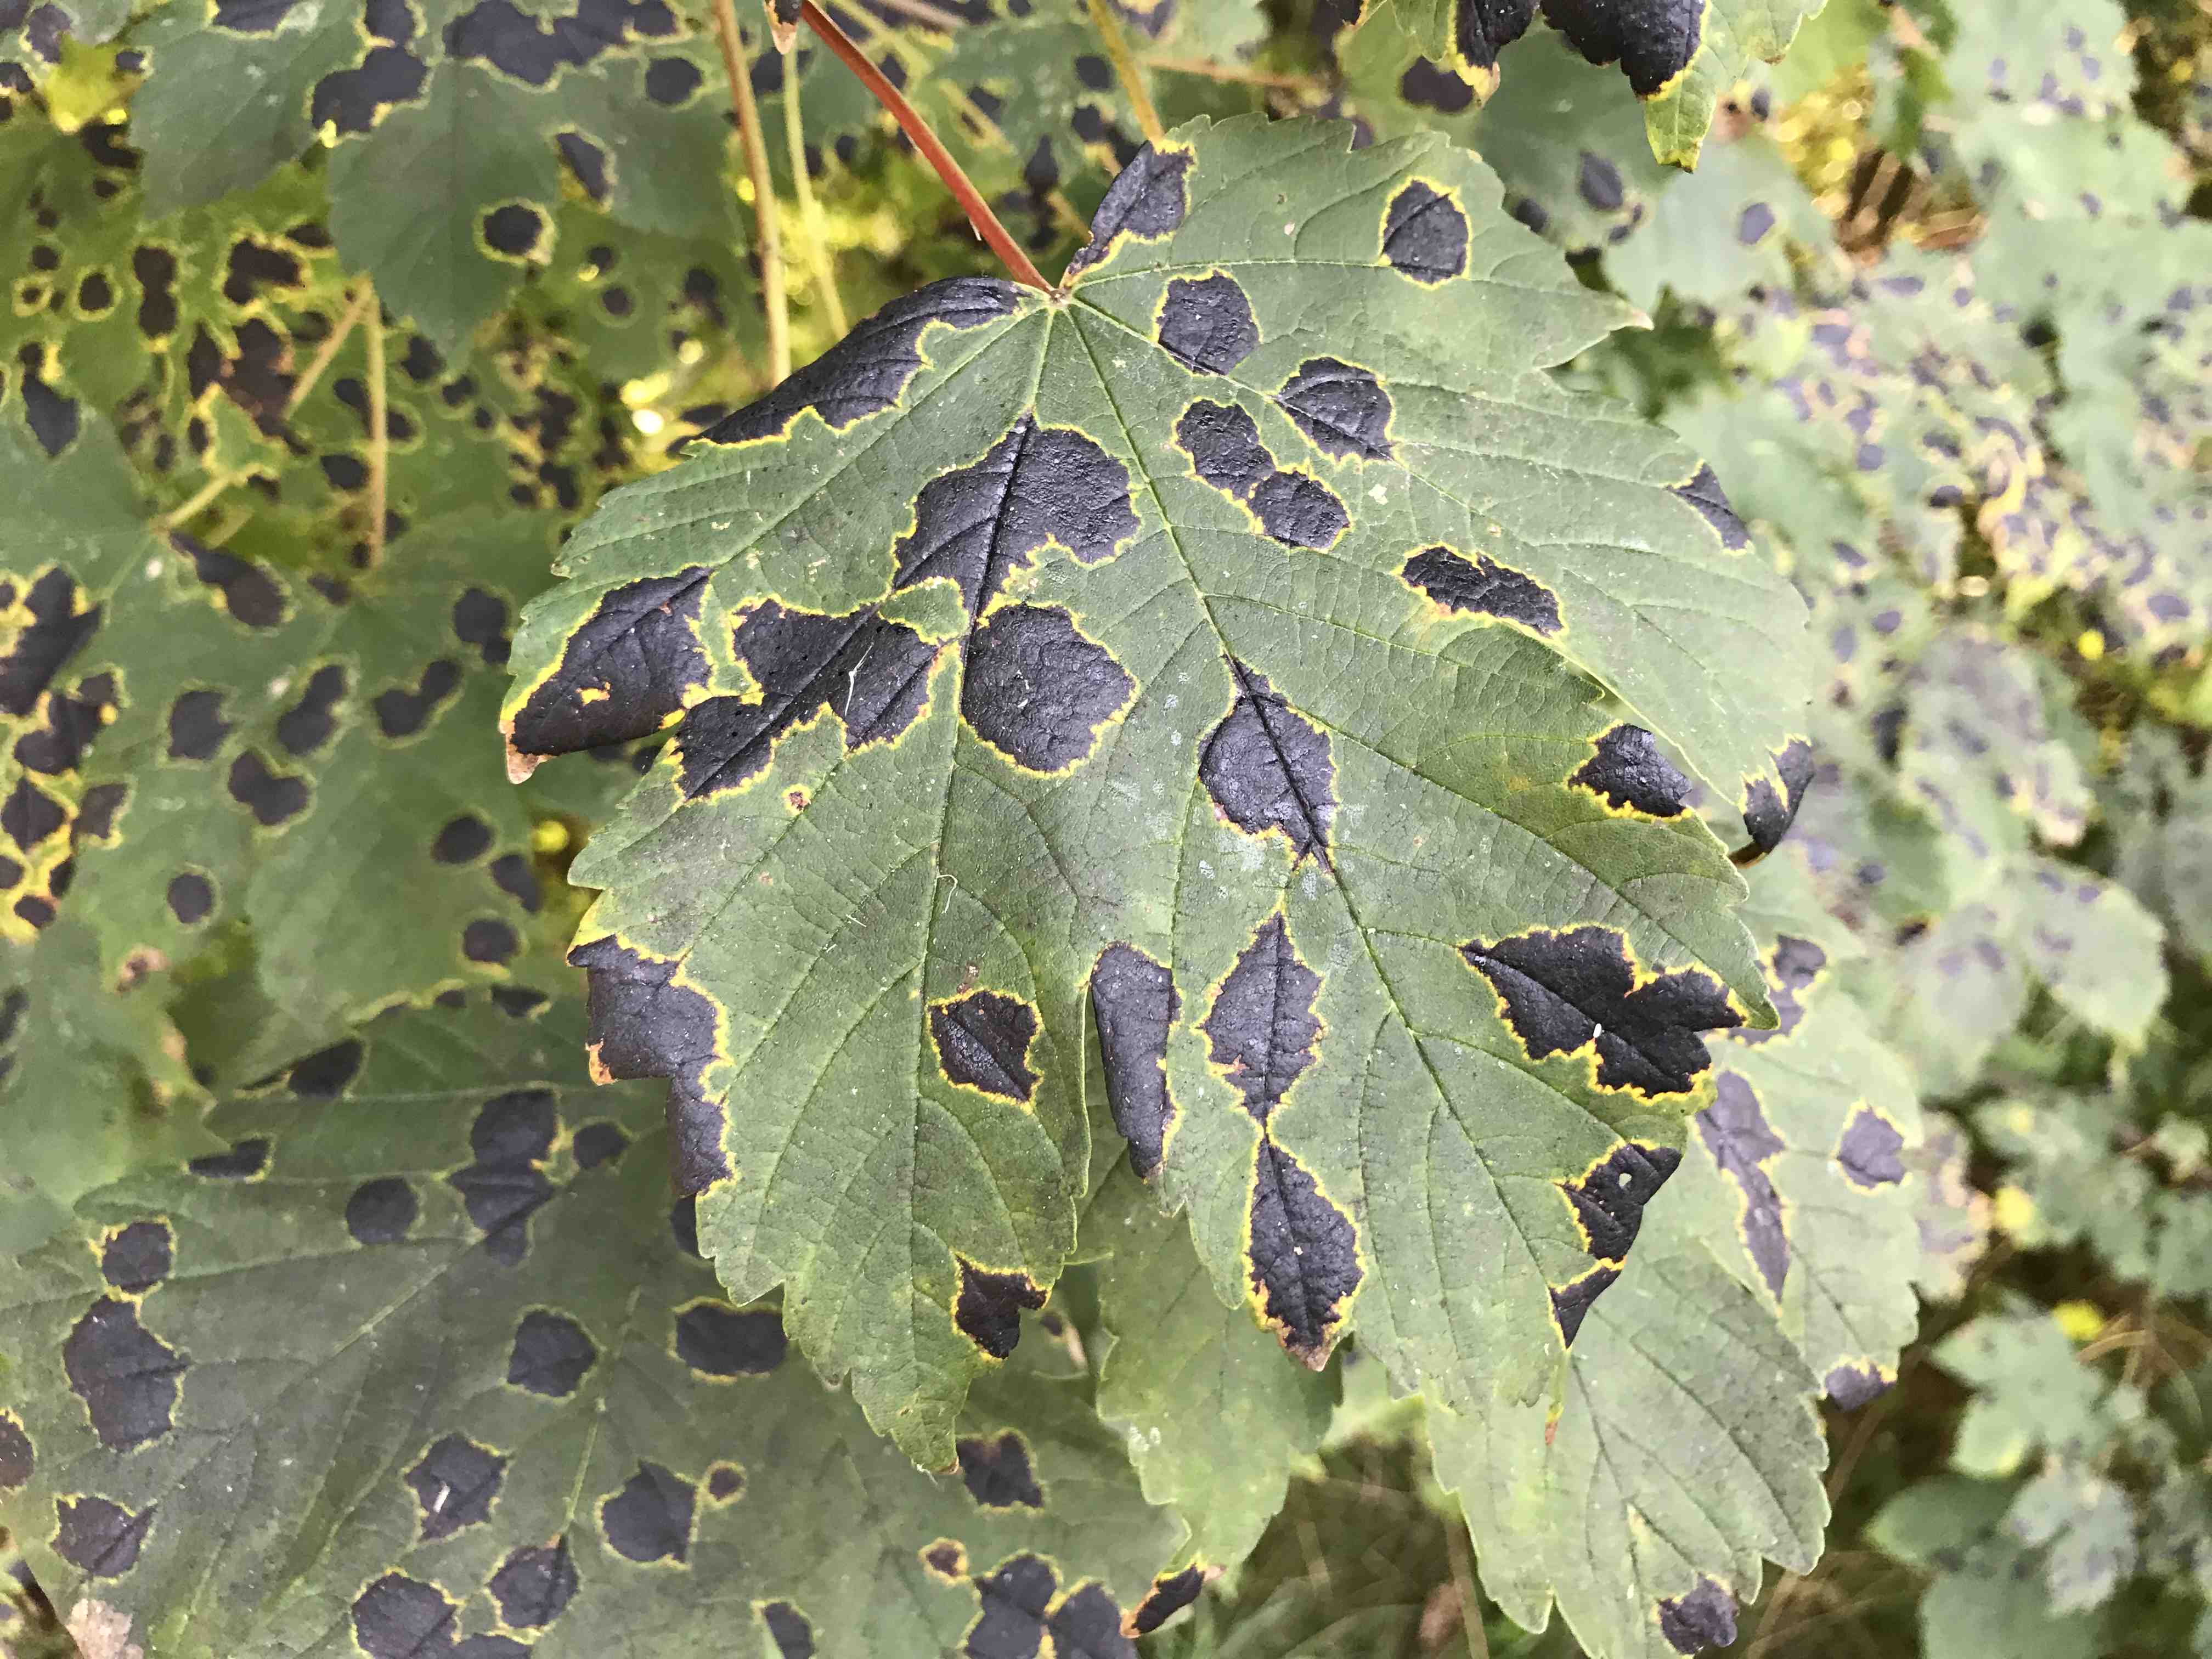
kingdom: Fungi
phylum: Ascomycota
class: Leotiomycetes
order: Rhytismatales
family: Rhytismataceae
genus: Rhytisma
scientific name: Rhytisma acerinum
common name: ahorn-rynkeplet
